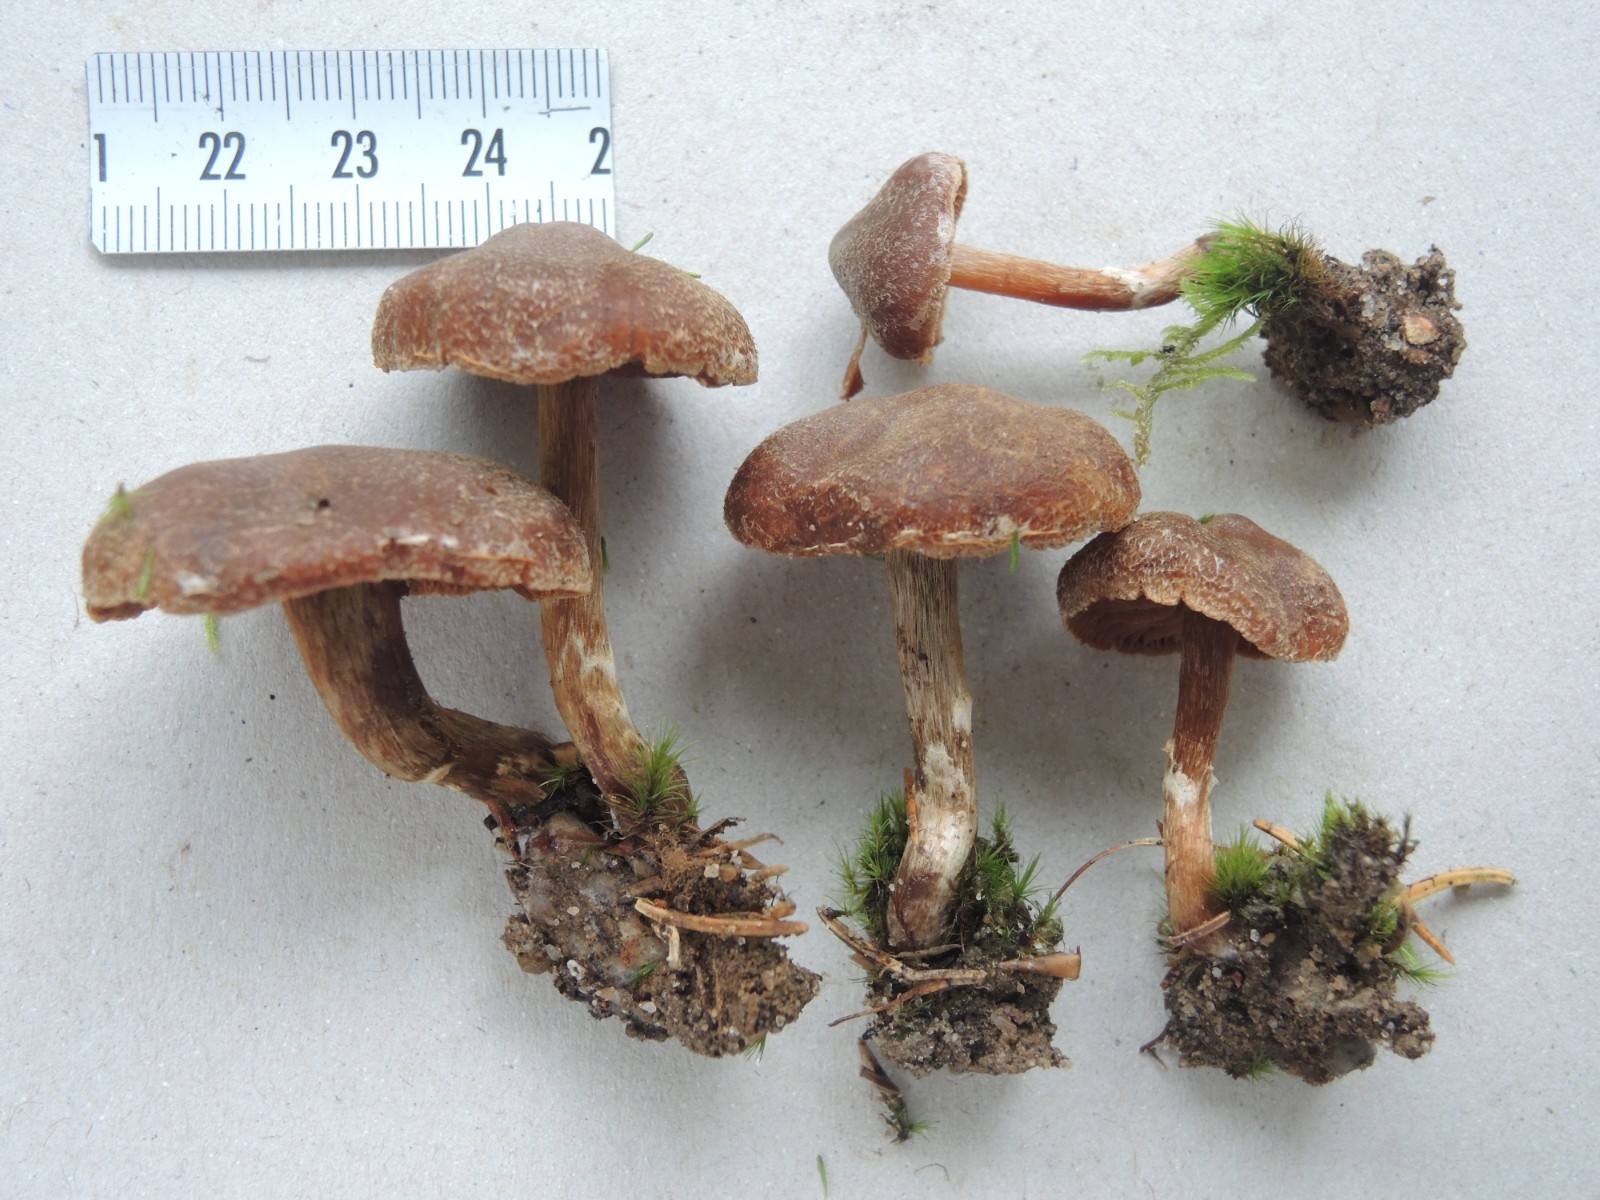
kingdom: Fungi
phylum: Basidiomycota
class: Agaricomycetes
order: Agaricales
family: Cortinariaceae
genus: Cortinarius
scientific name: Cortinarius pinisquamulosus
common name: finskællet slørhat
